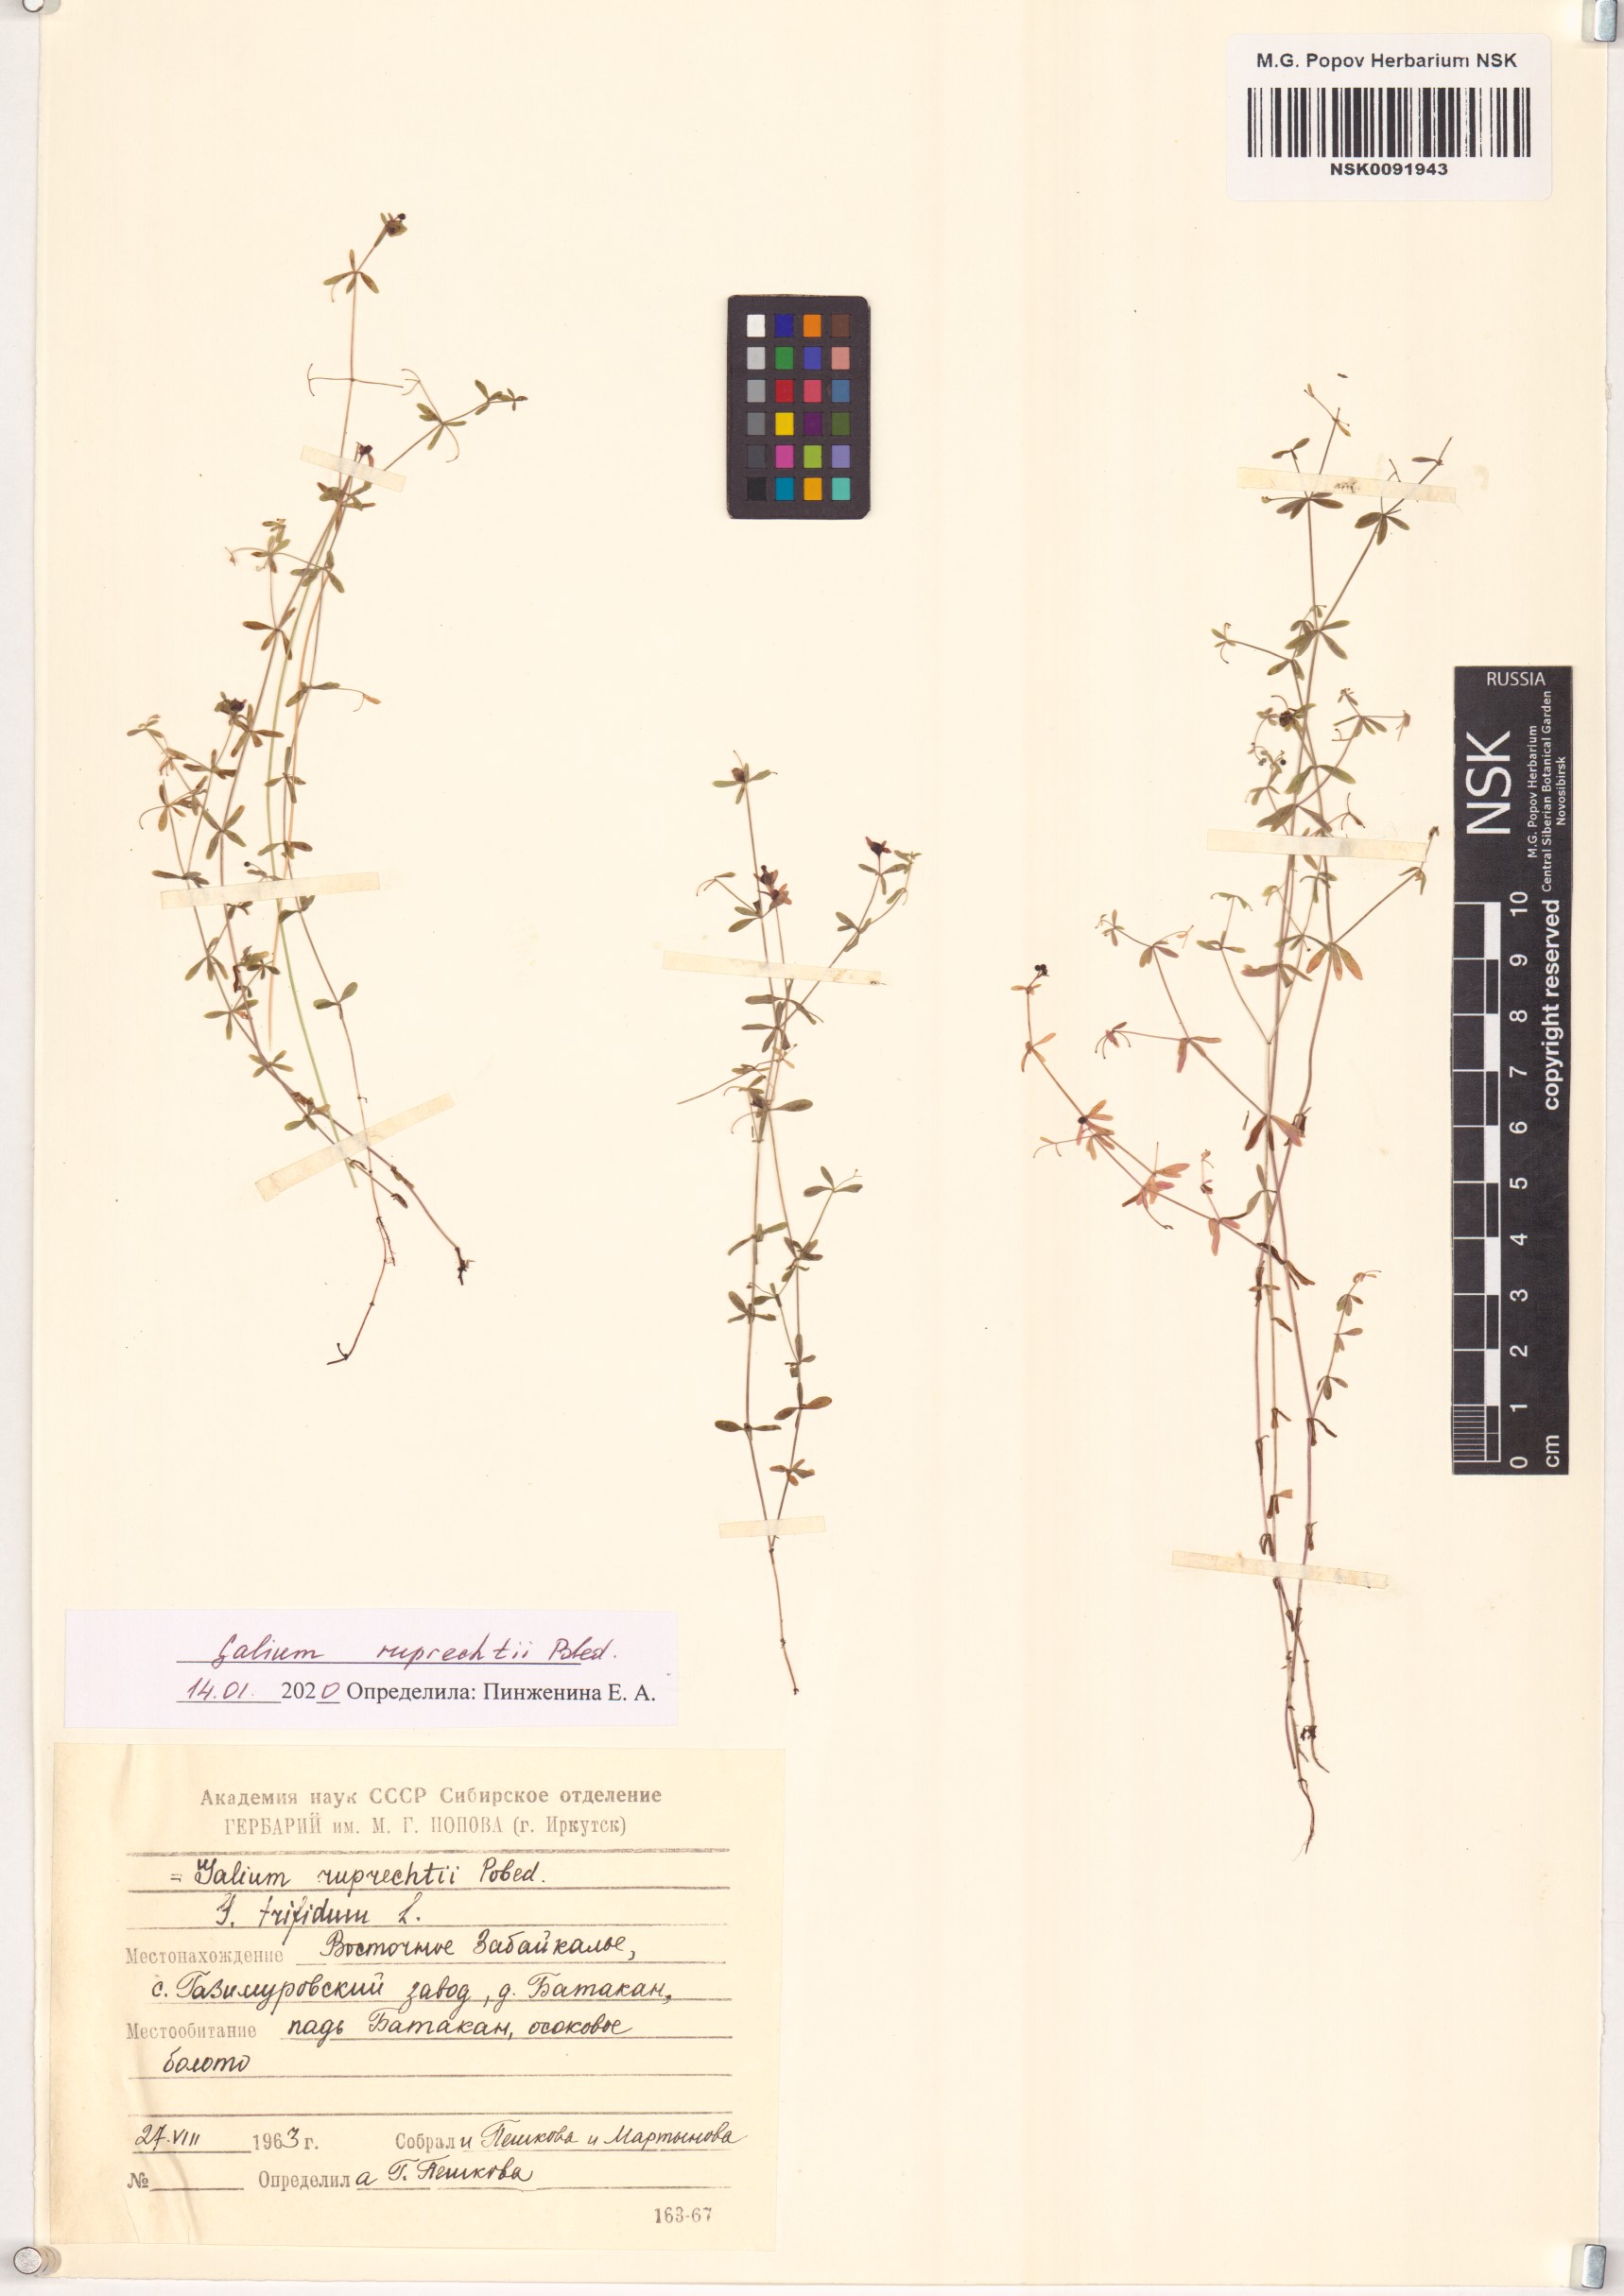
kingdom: Plantae
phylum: Tracheophyta
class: Magnoliopsida
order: Gentianales
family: Rubiaceae
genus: Galium
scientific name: Galium trifidum
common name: Small bedstraw
